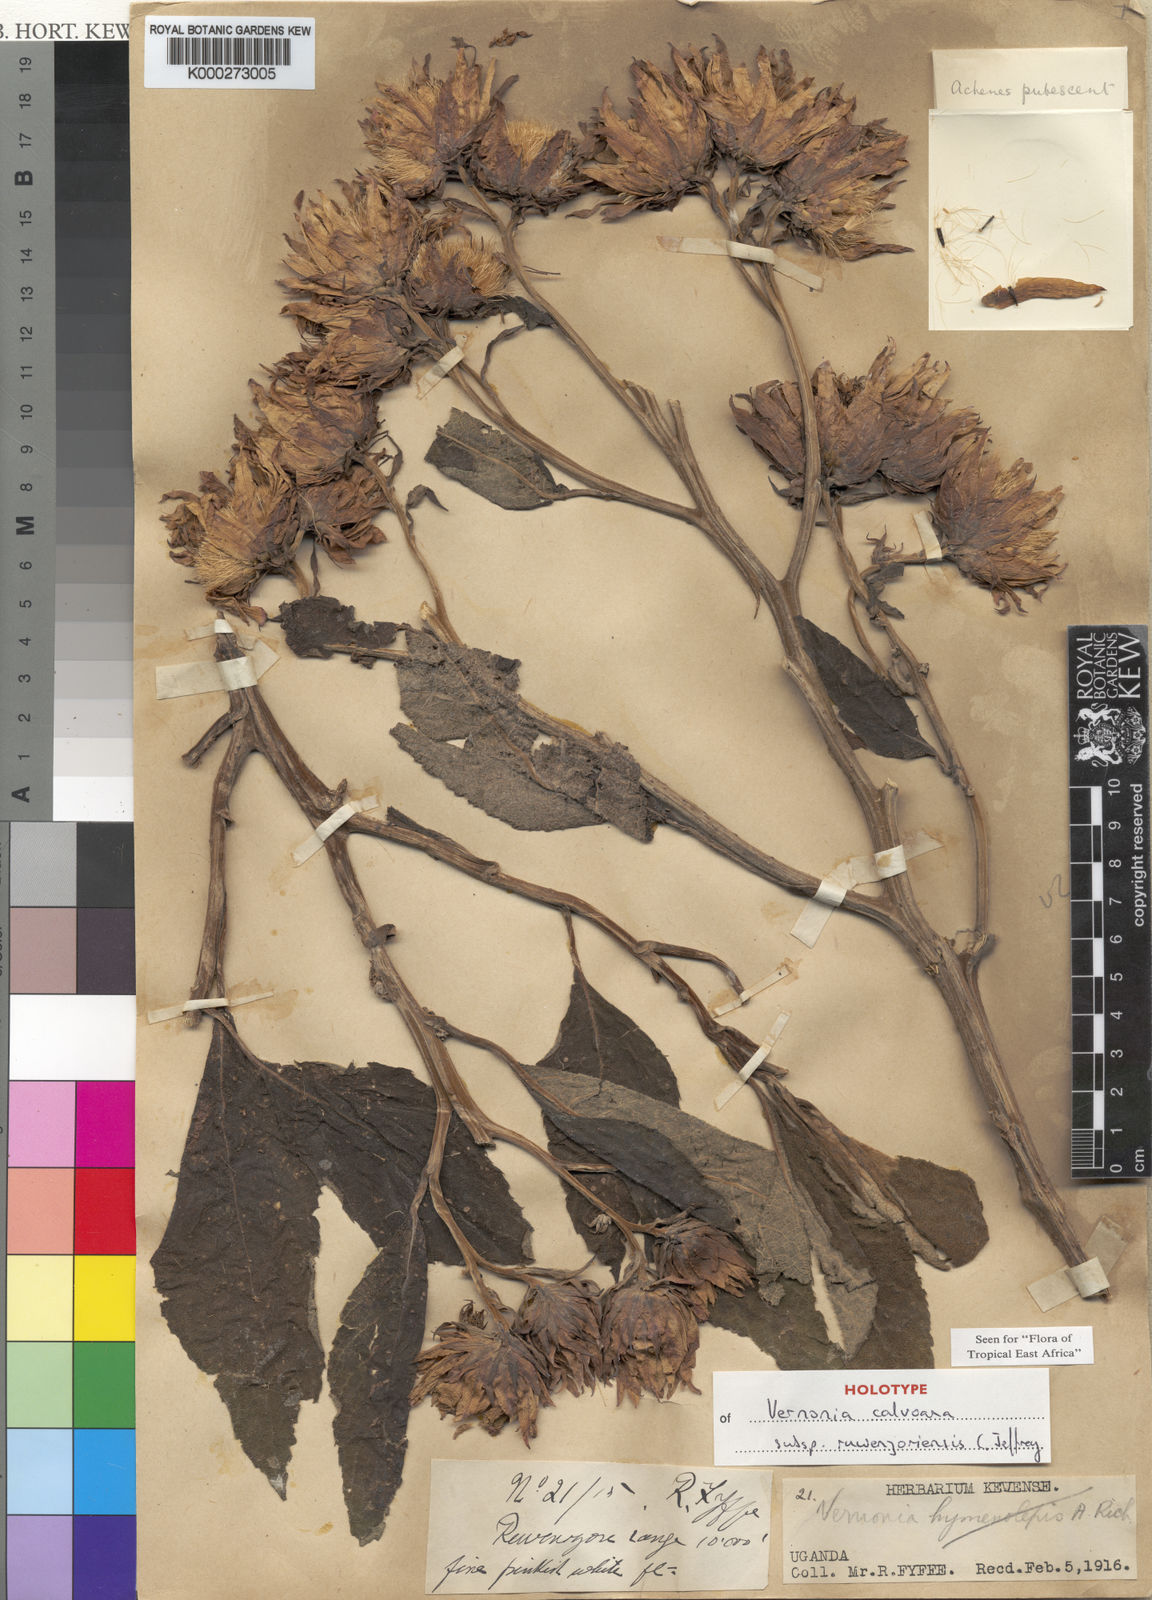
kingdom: Plantae
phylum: Tracheophyta
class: Magnoliopsida
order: Asterales
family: Asteraceae
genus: Baccharoides
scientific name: Baccharoides calvoana
